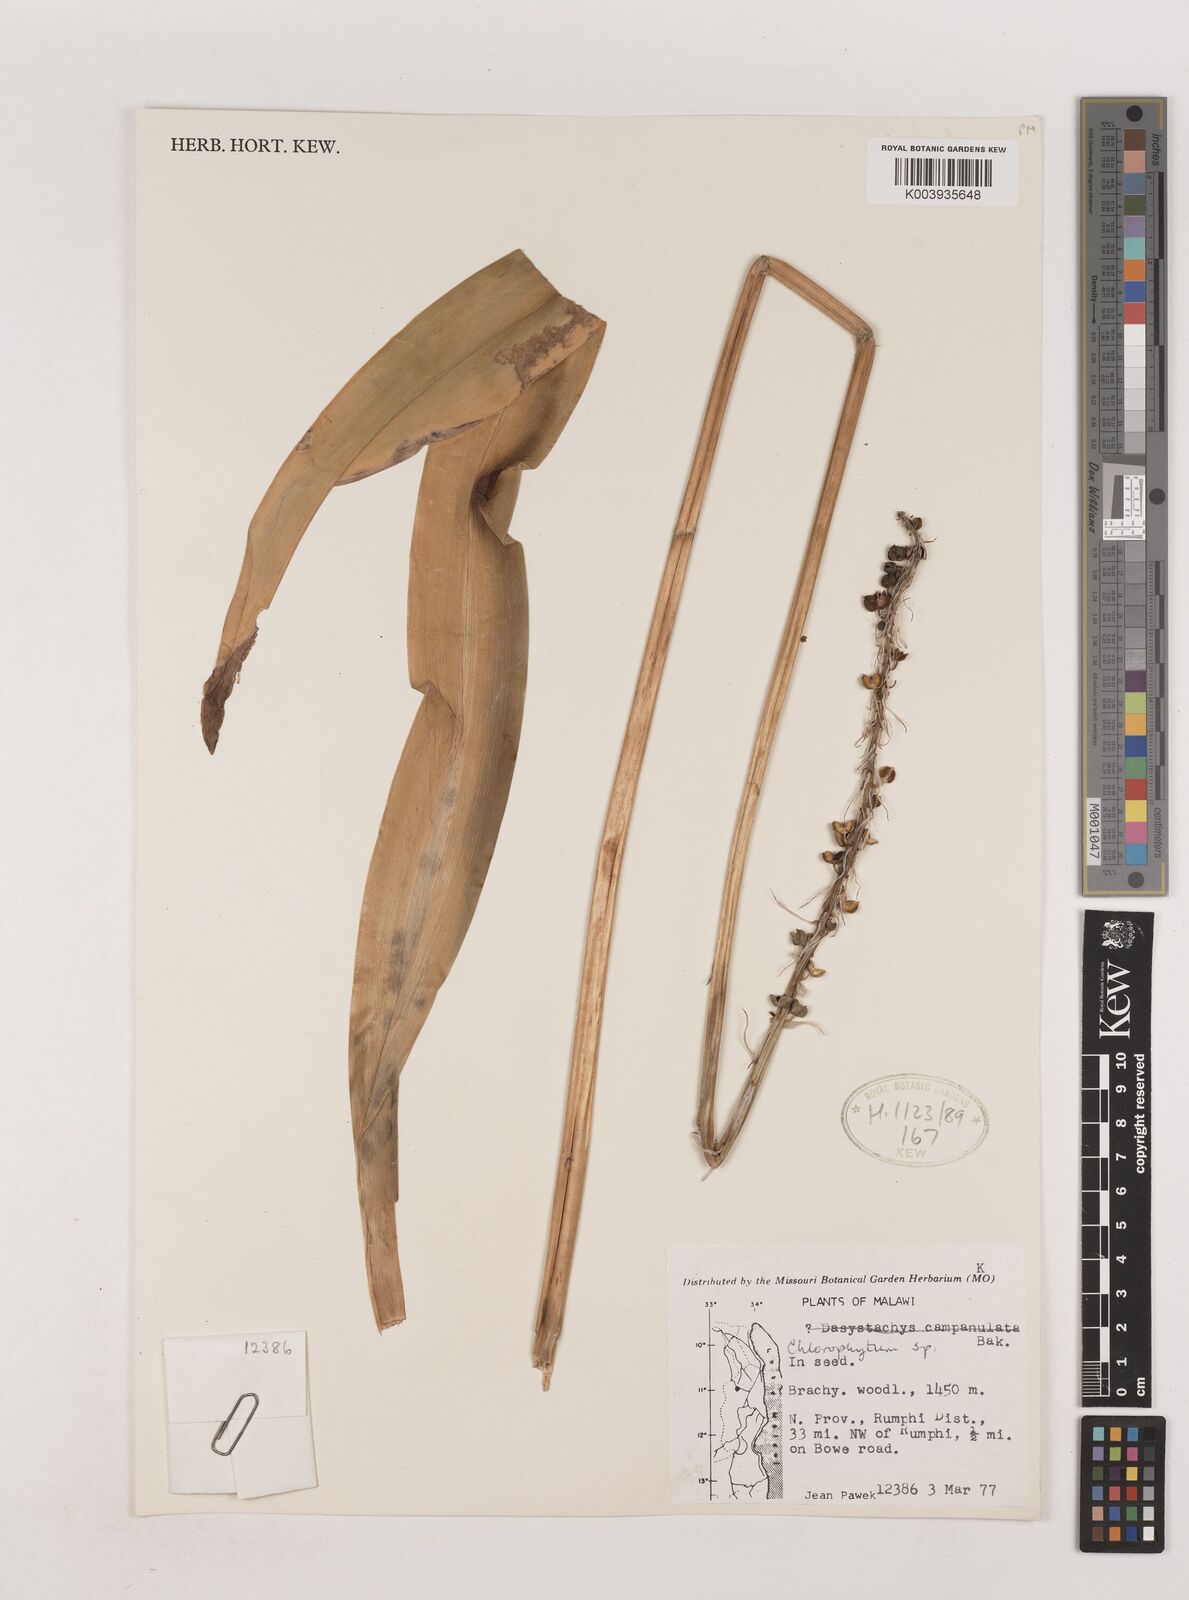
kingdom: Plantae
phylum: Tracheophyta
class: Liliopsida
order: Asparagales
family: Asparagaceae
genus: Chlorophytum
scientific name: Chlorophytum
